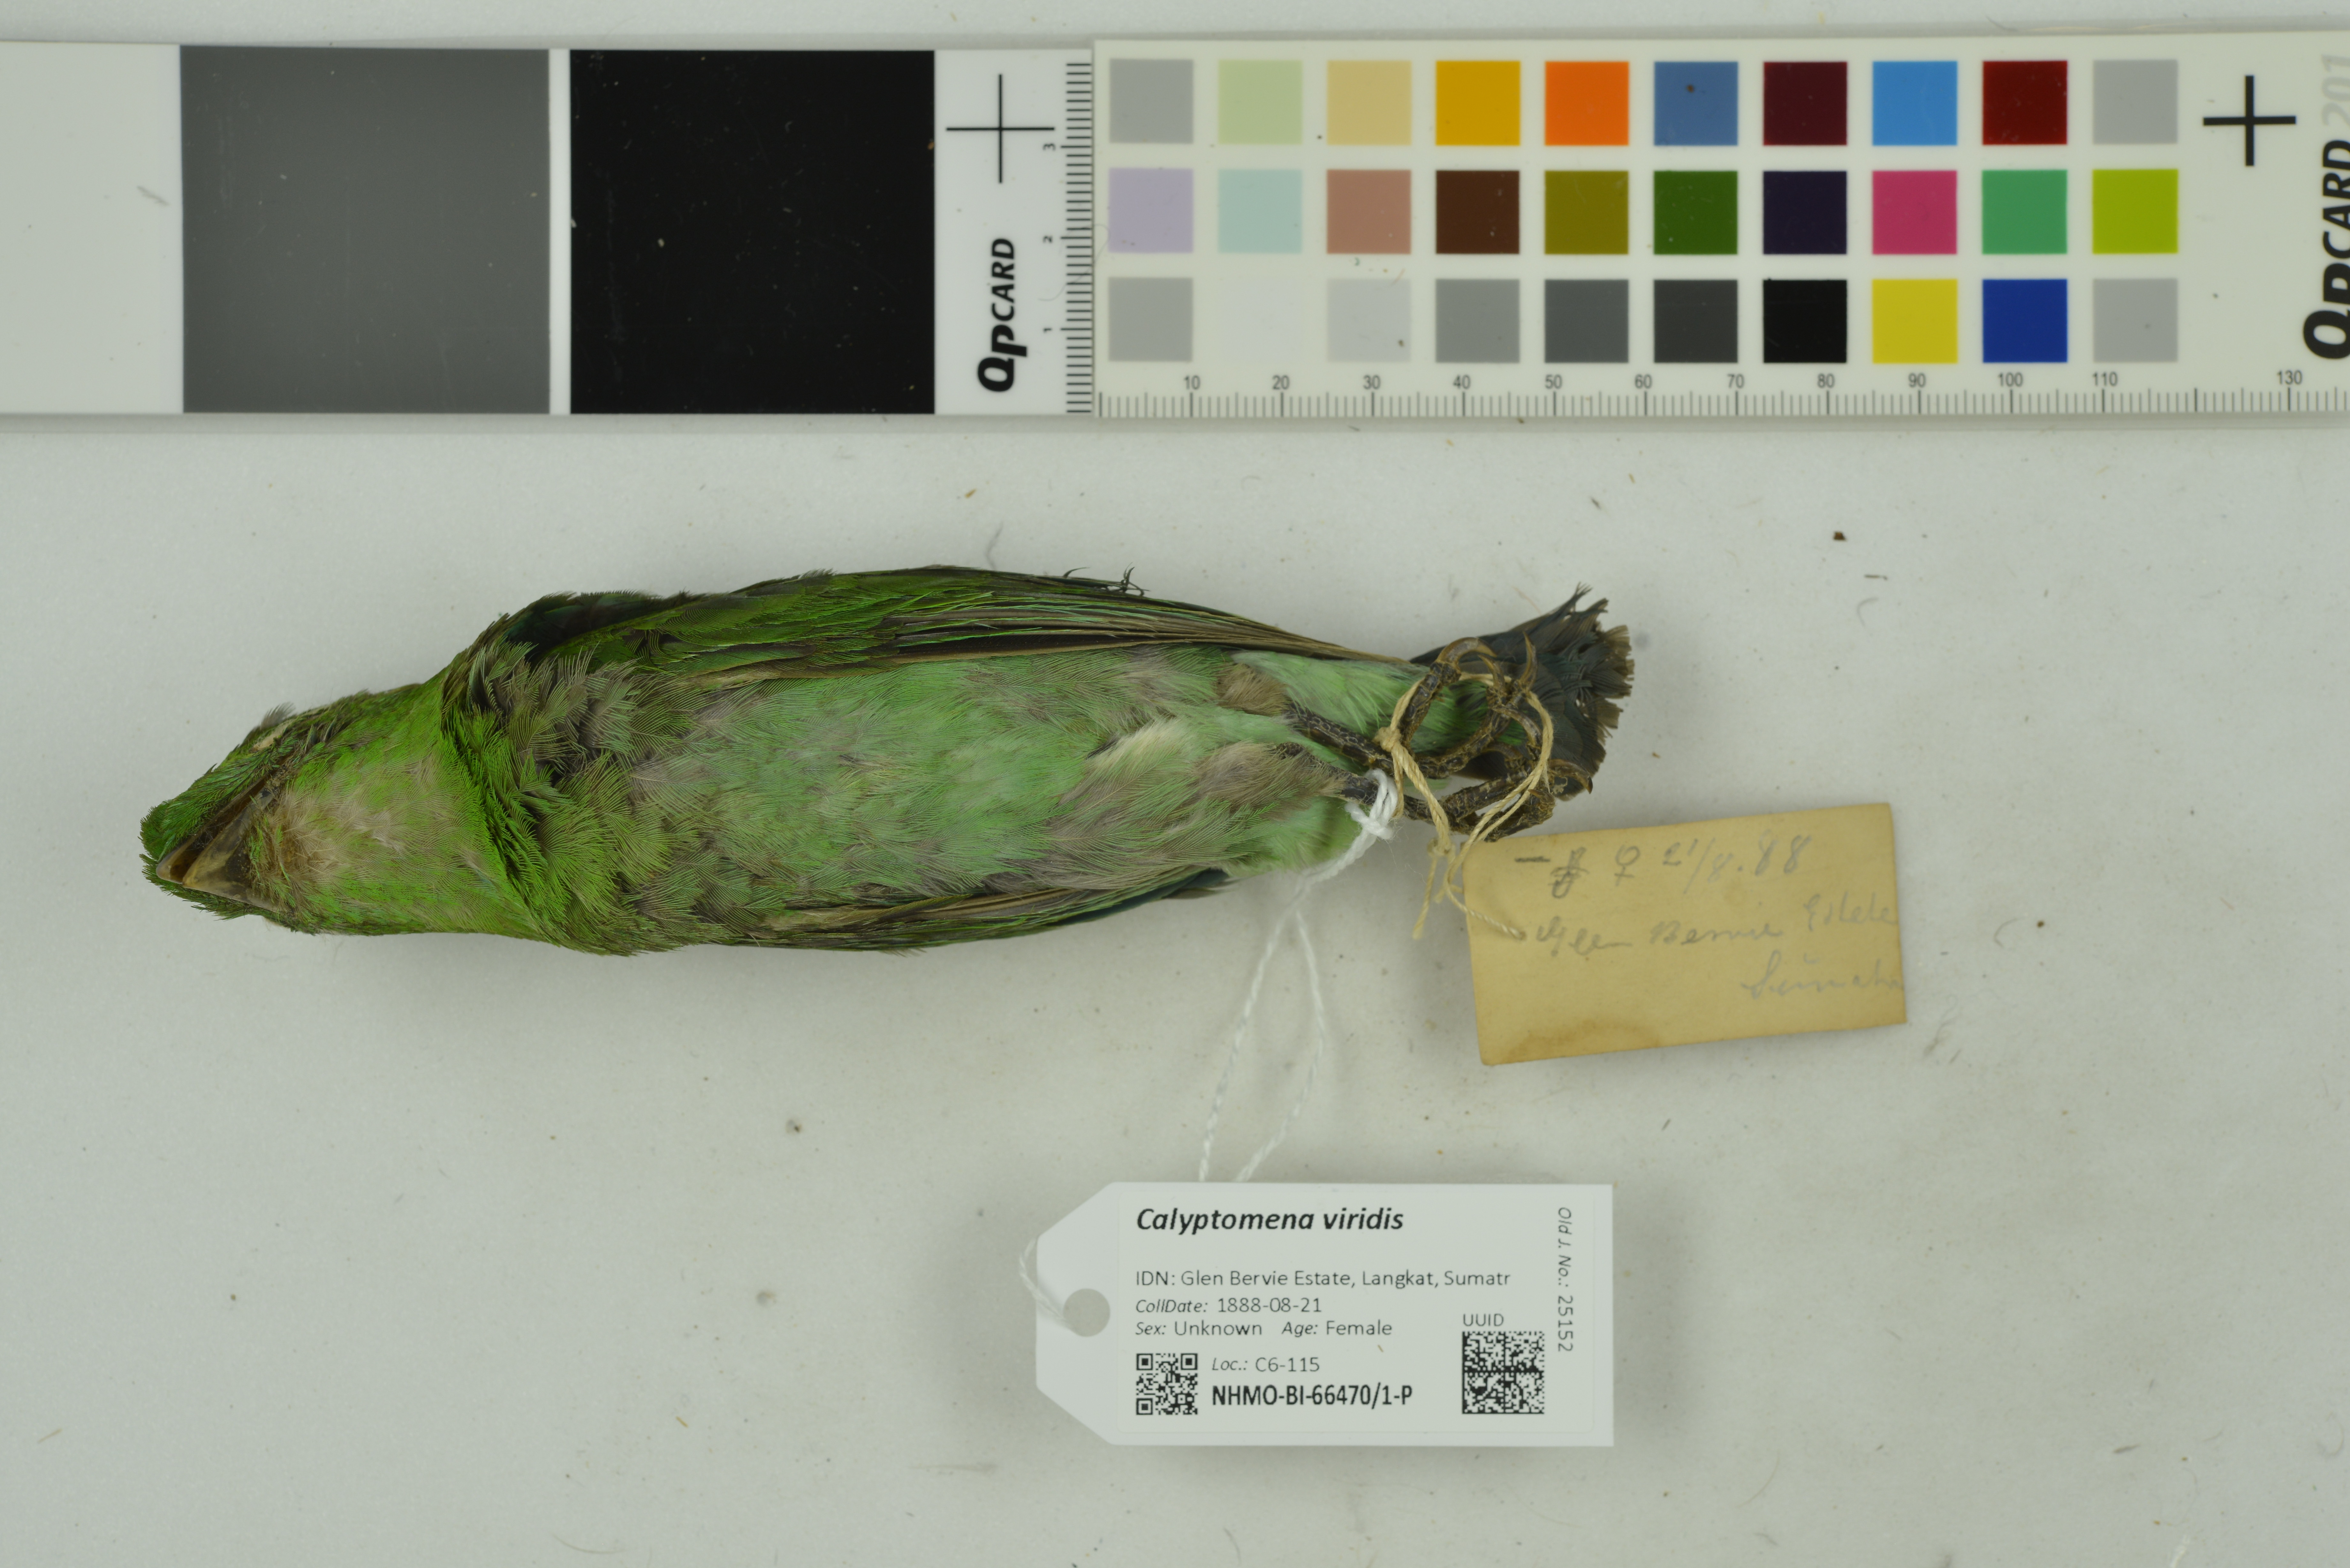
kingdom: Animalia
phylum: Chordata
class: Aves
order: Passeriformes
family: Eurylaimidae
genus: Calyptomena
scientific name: Calyptomena viridis
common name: Green broadbill
